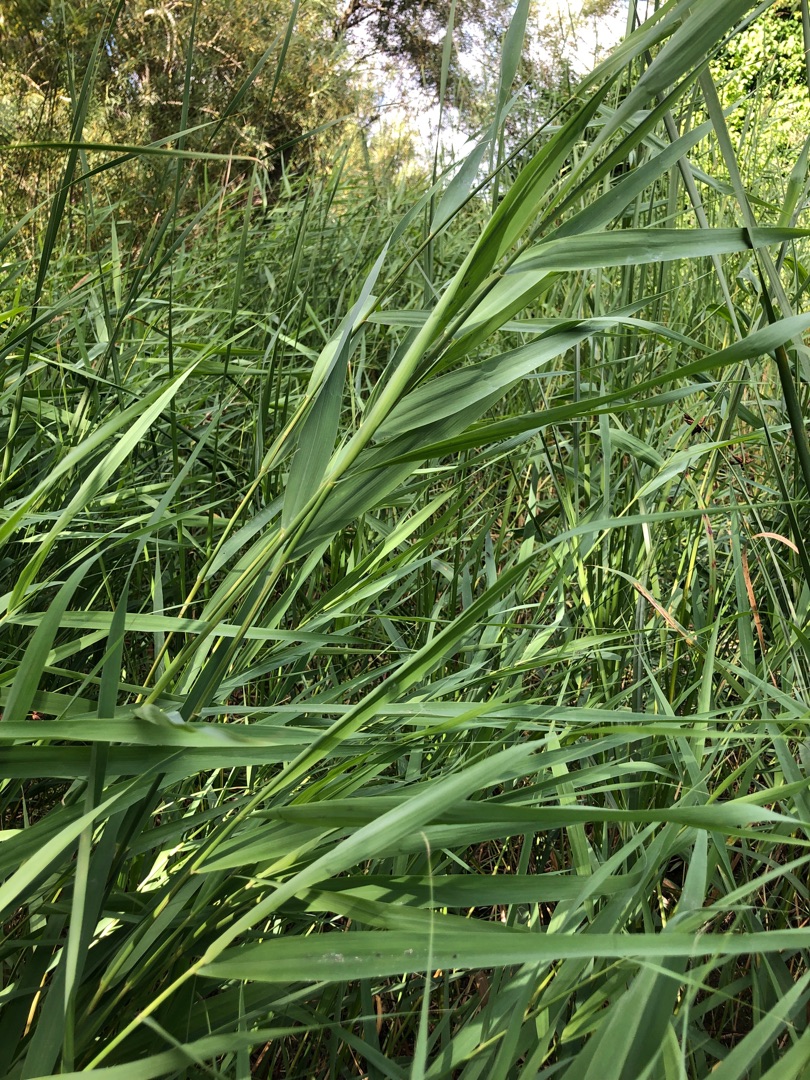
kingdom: Plantae
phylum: Tracheophyta
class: Liliopsida
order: Poales
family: Poaceae
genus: Phragmites
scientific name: Phragmites australis
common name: Tagrør
